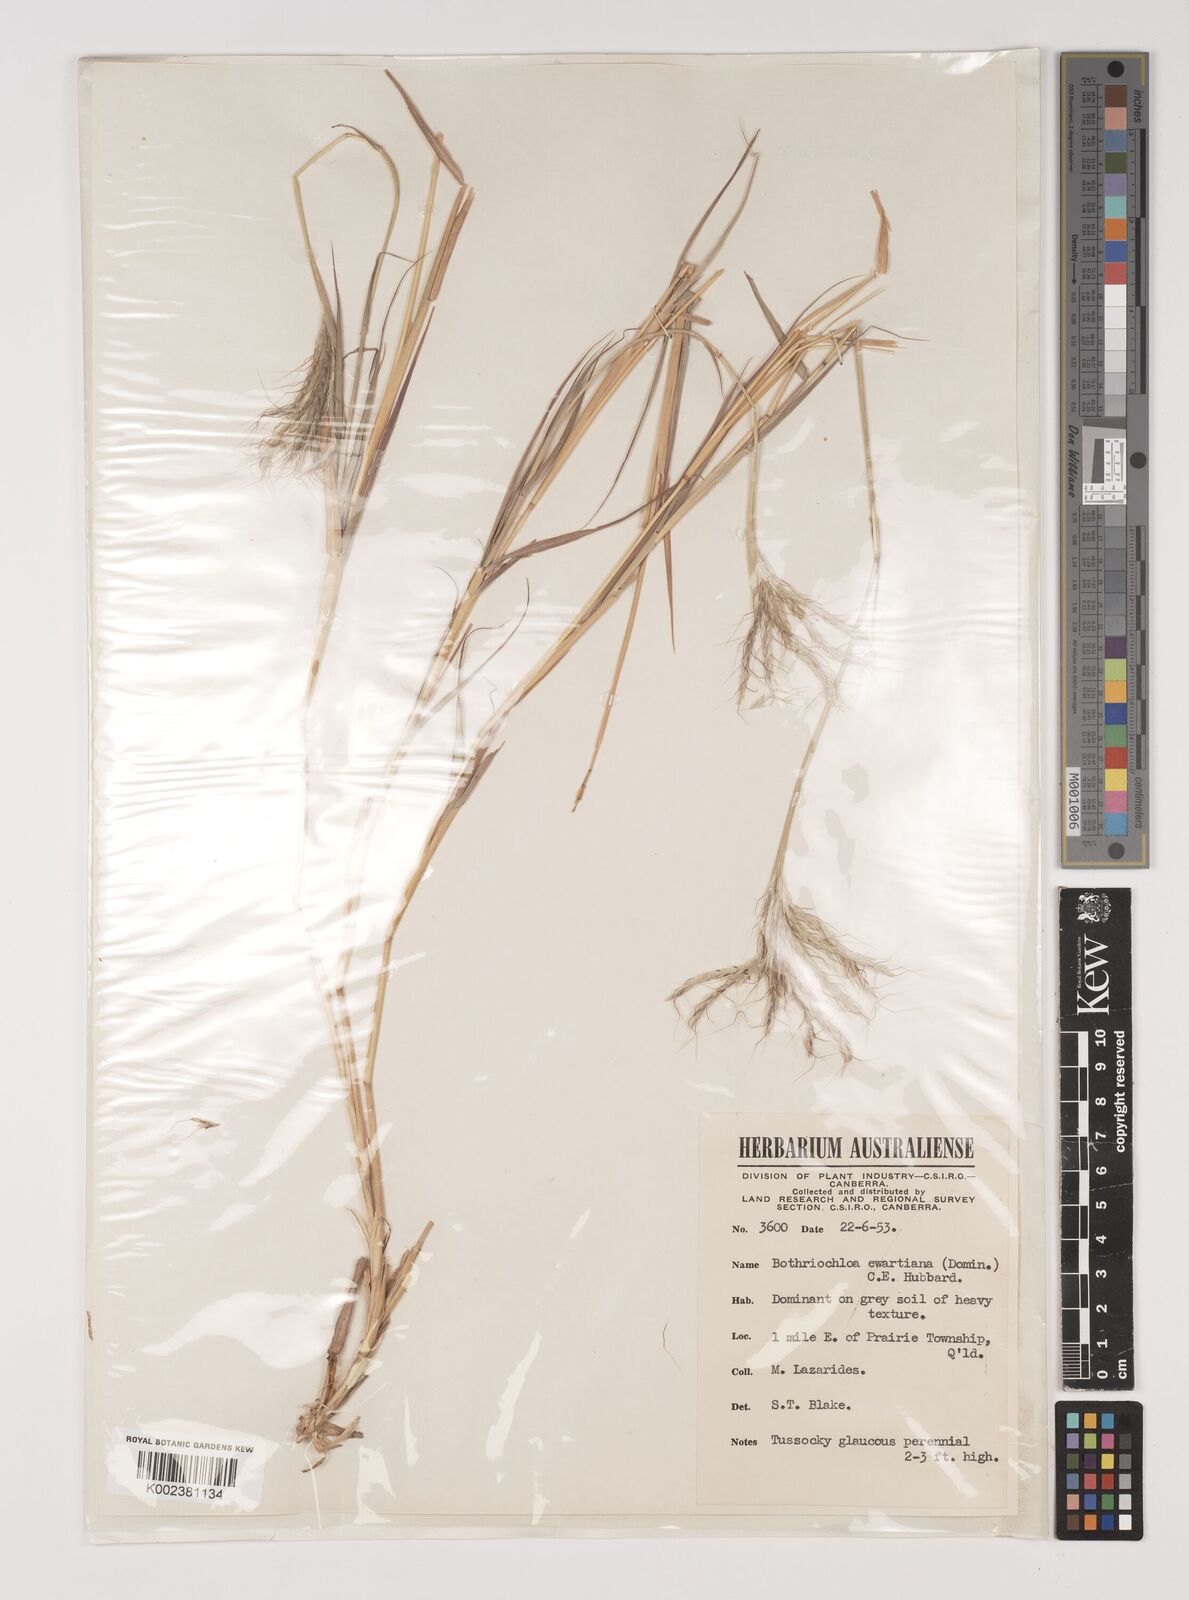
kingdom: Plantae
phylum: Tracheophyta
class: Liliopsida
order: Poales
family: Poaceae
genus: Bothriochloa
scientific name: Bothriochloa ewartiana
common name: Desert-bluegrass
